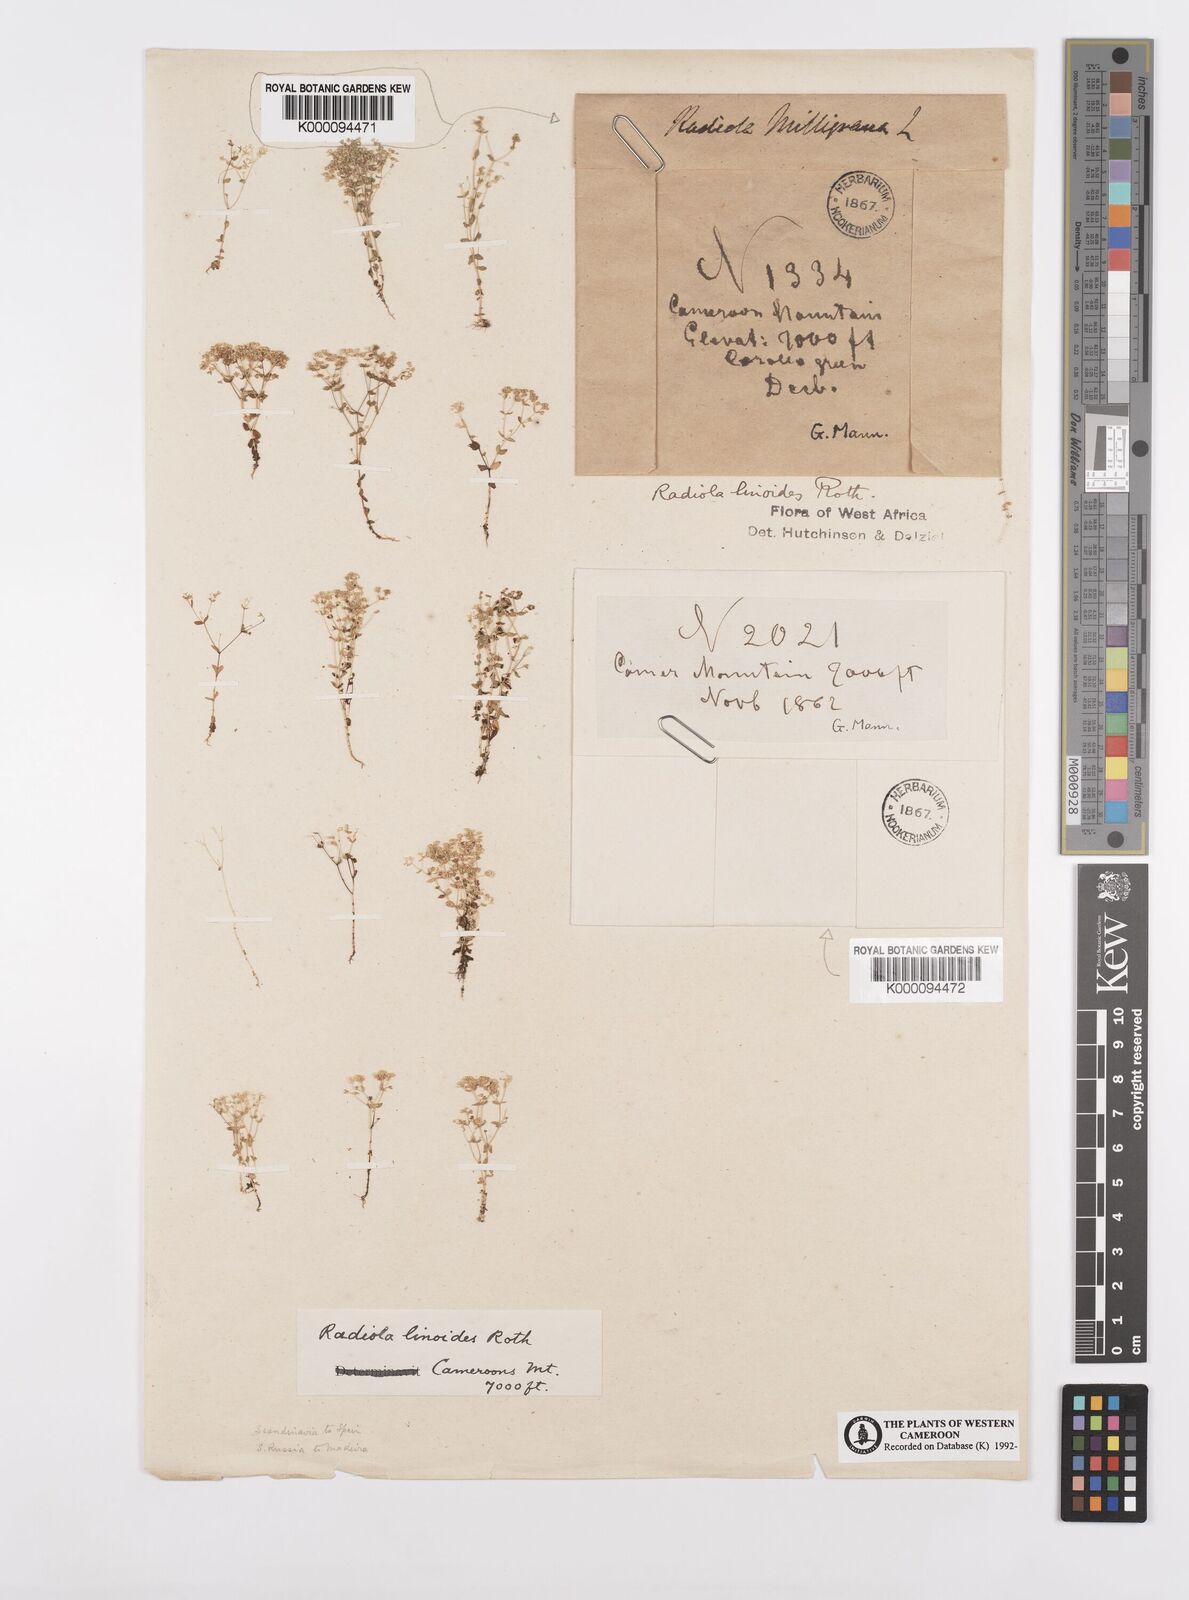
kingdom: Plantae
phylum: Tracheophyta
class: Magnoliopsida
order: Malpighiales
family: Linaceae
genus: Radiola
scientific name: Radiola linoides
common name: Allseed
